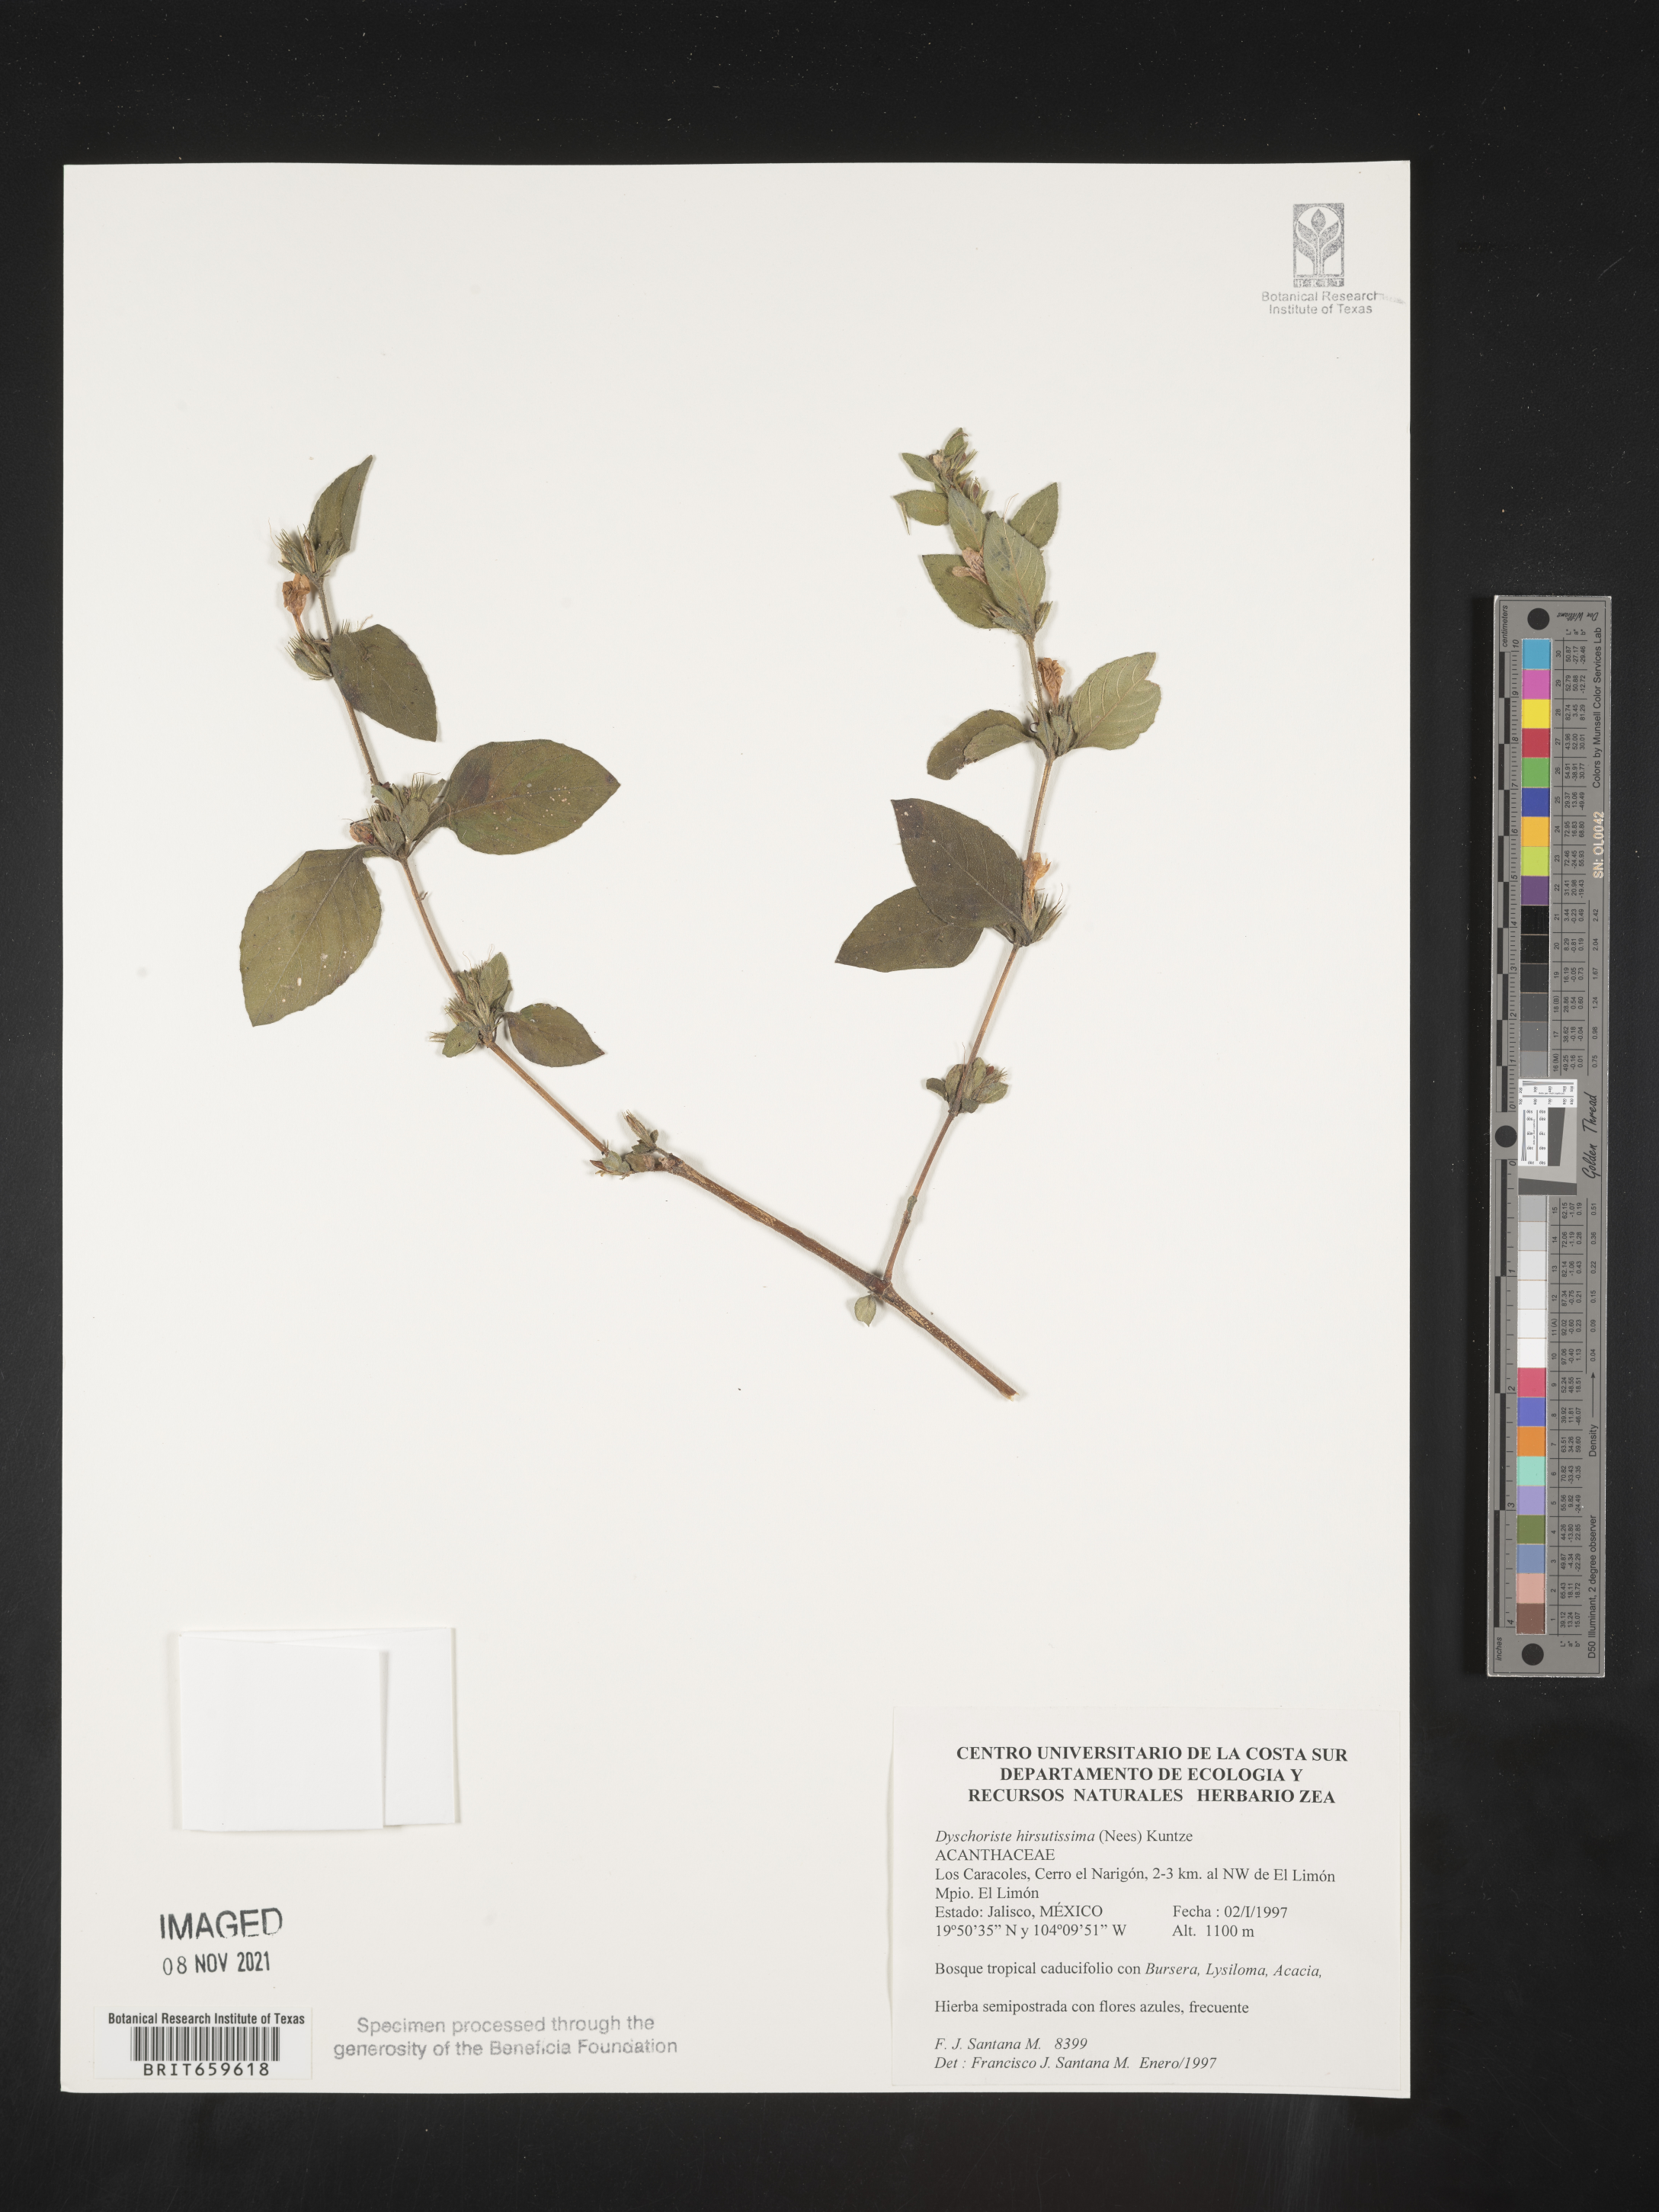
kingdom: Plantae
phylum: Tracheophyta
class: Magnoliopsida
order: Lamiales
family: Acanthaceae
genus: Dyschoriste
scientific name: Dyschoriste
